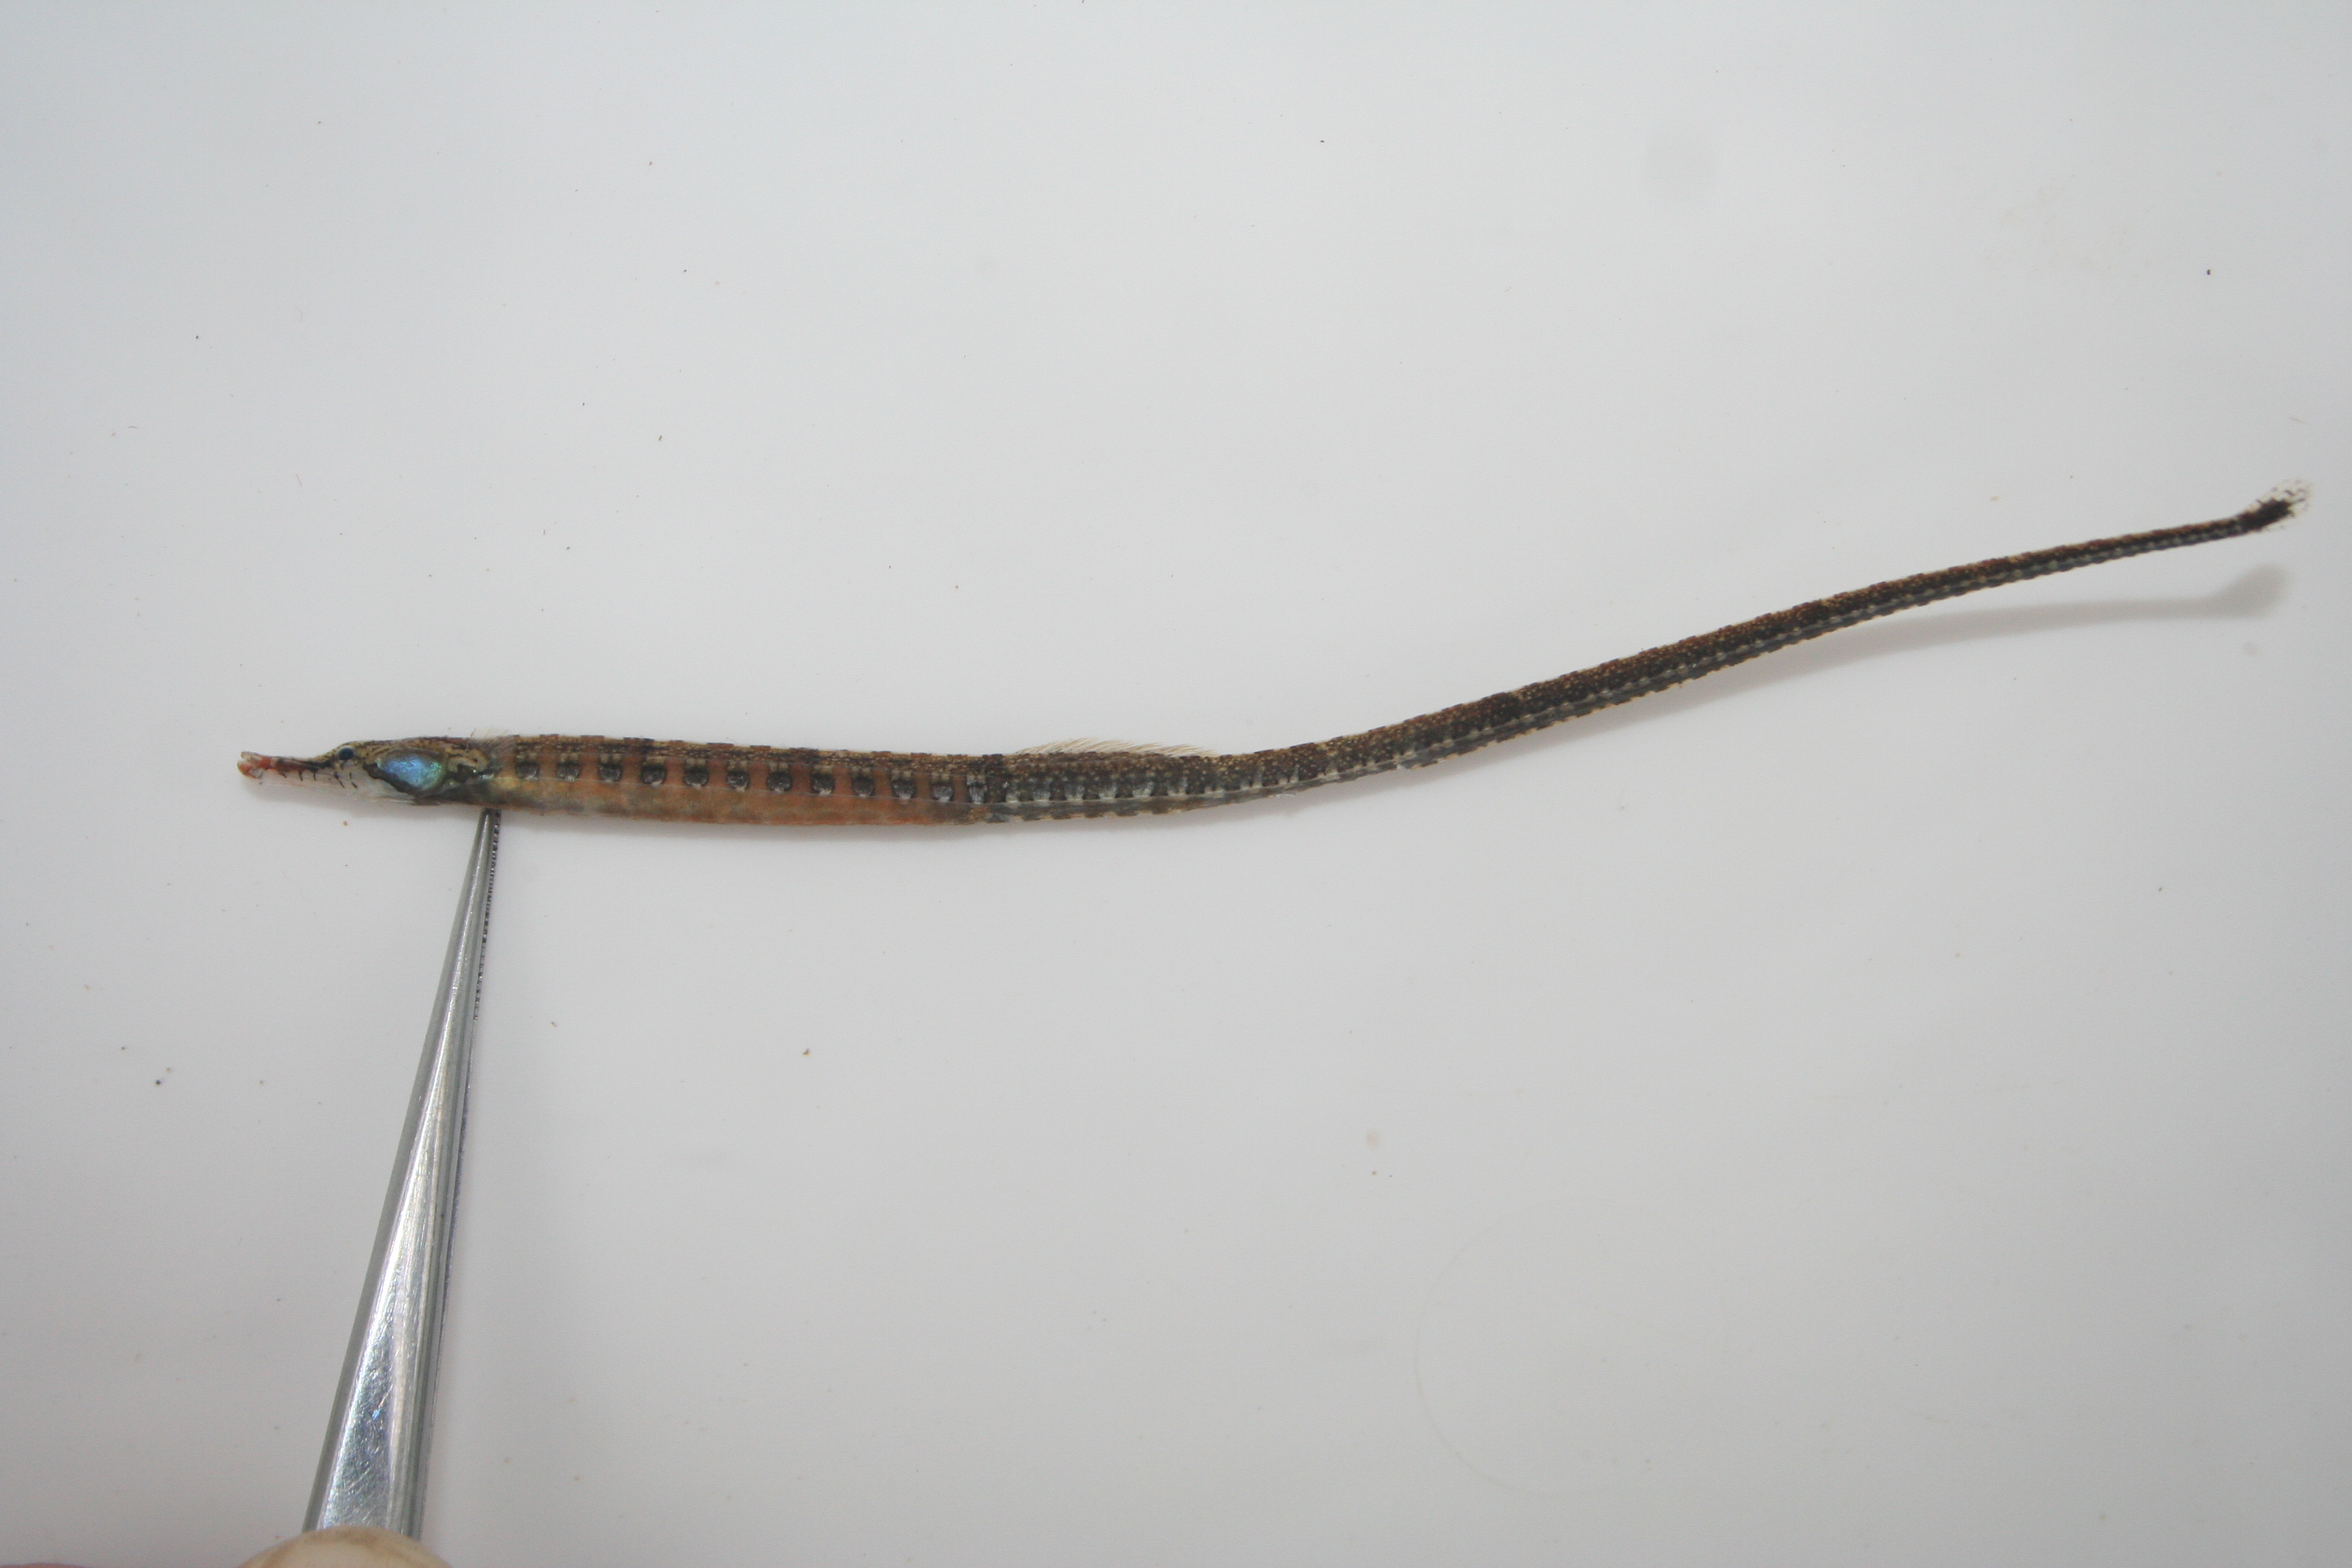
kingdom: Animalia
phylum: Chordata
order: Syngnathiformes
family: Syngnathidae
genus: Enneacampus
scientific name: Enneacampus ansorgii
